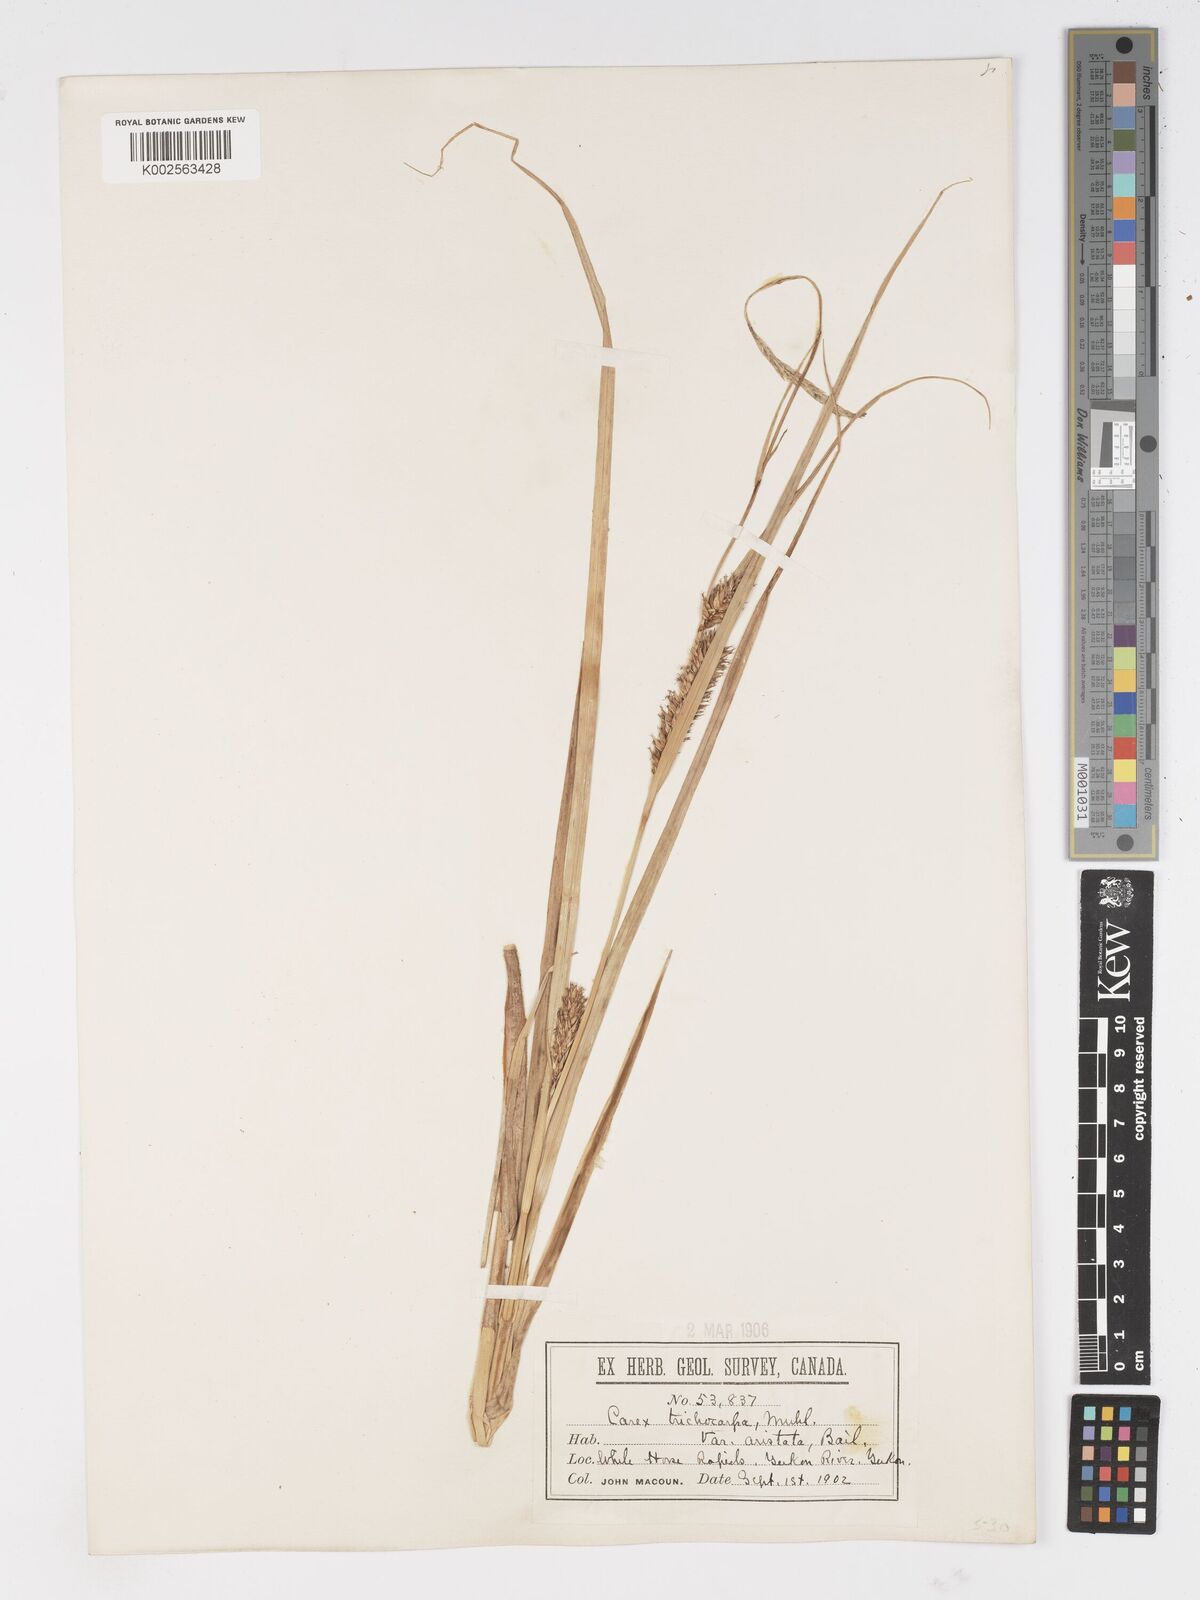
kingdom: Plantae
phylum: Tracheophyta
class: Liliopsida
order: Poales
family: Cyperaceae
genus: Carex
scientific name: Carex trichocarpa
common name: Hairy-fruited lake sedge
